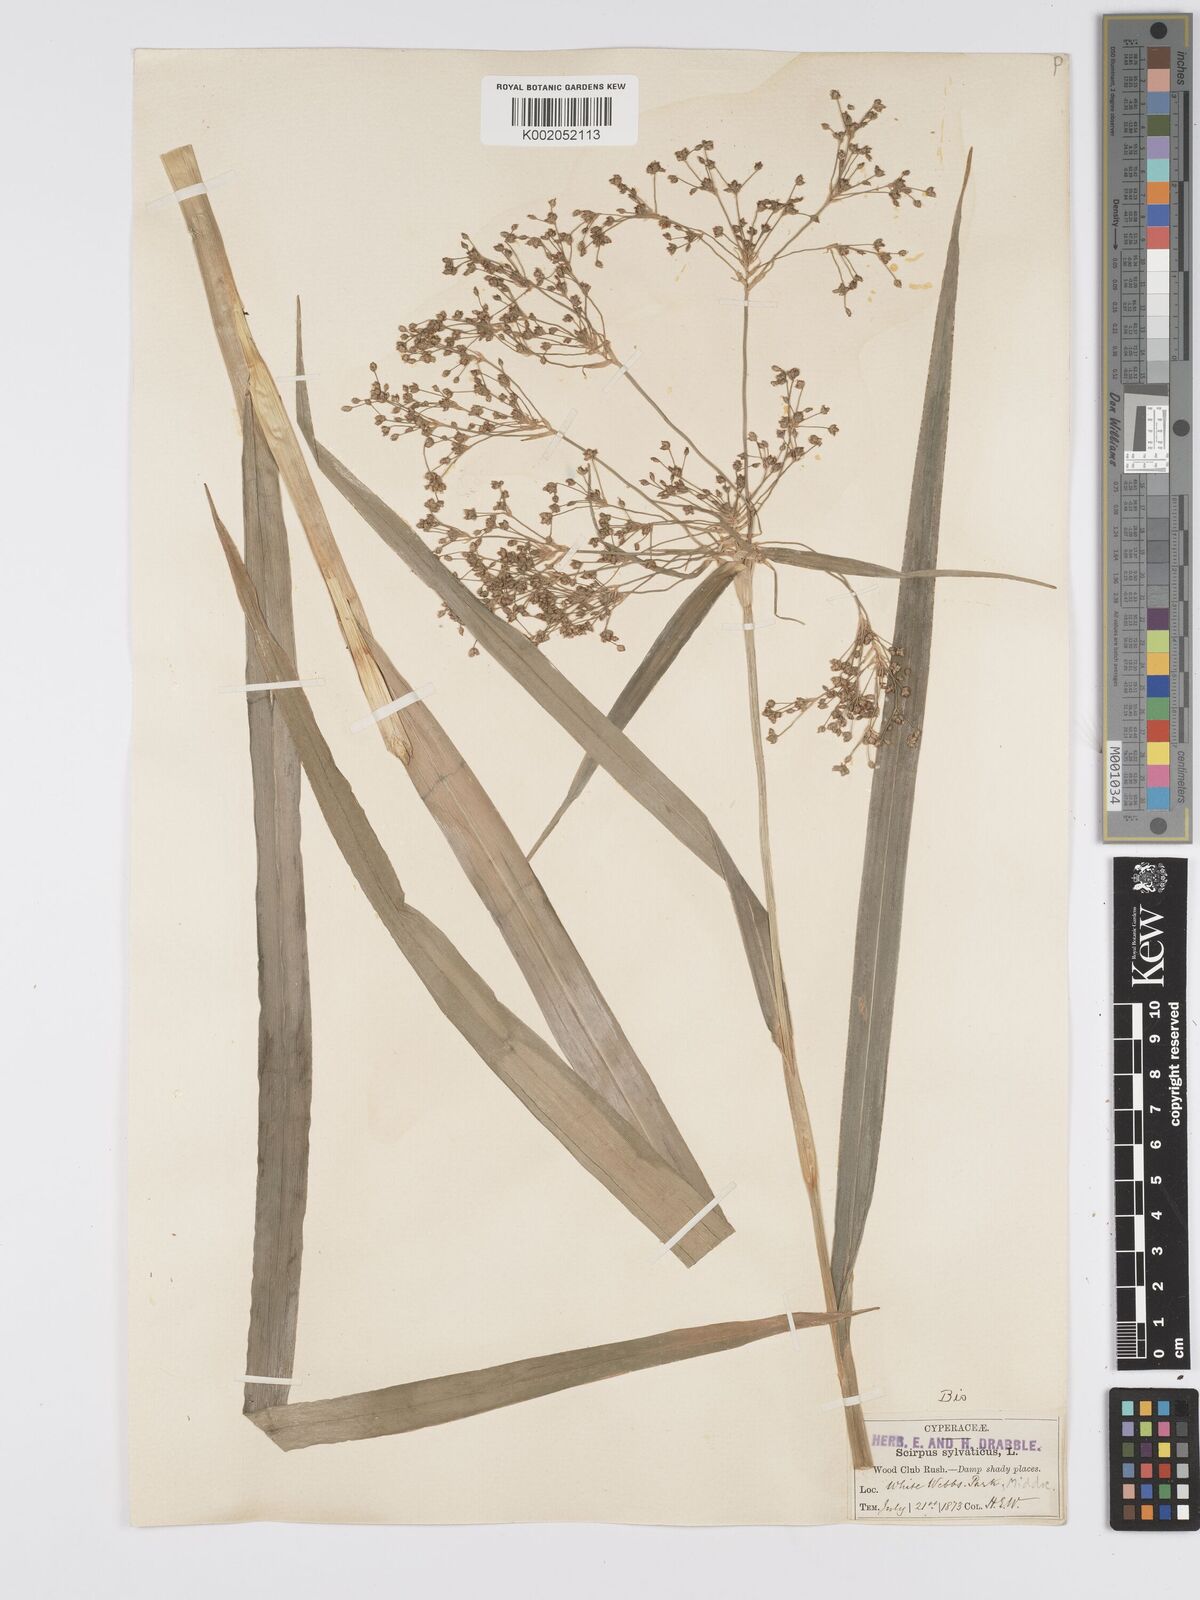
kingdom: Plantae
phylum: Tracheophyta
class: Liliopsida
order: Poales
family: Cyperaceae
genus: Scirpus
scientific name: Scirpus sylvaticus
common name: Wood club-rush
